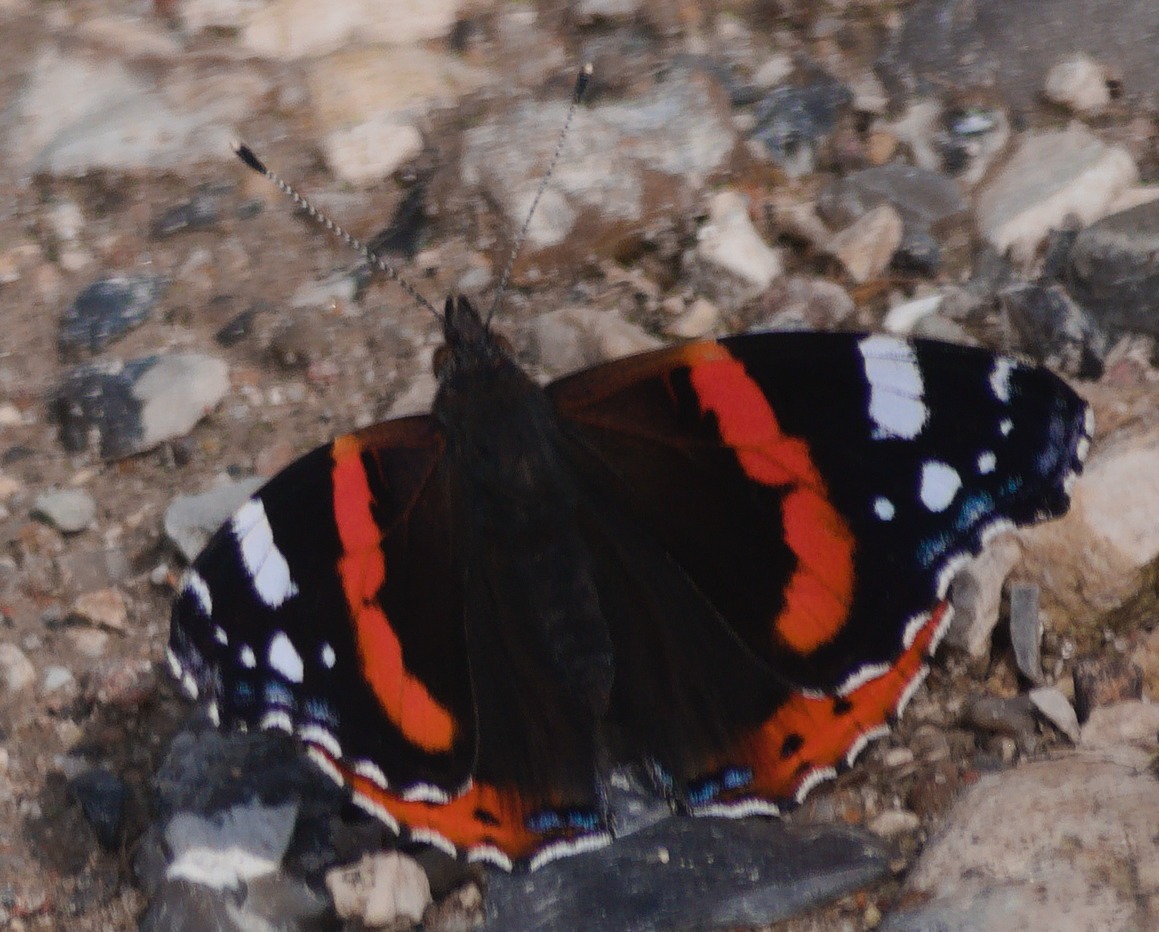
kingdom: Animalia
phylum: Arthropoda
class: Insecta
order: Lepidoptera
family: Nymphalidae
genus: Vanessa
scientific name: Vanessa atalanta
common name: Admiral
